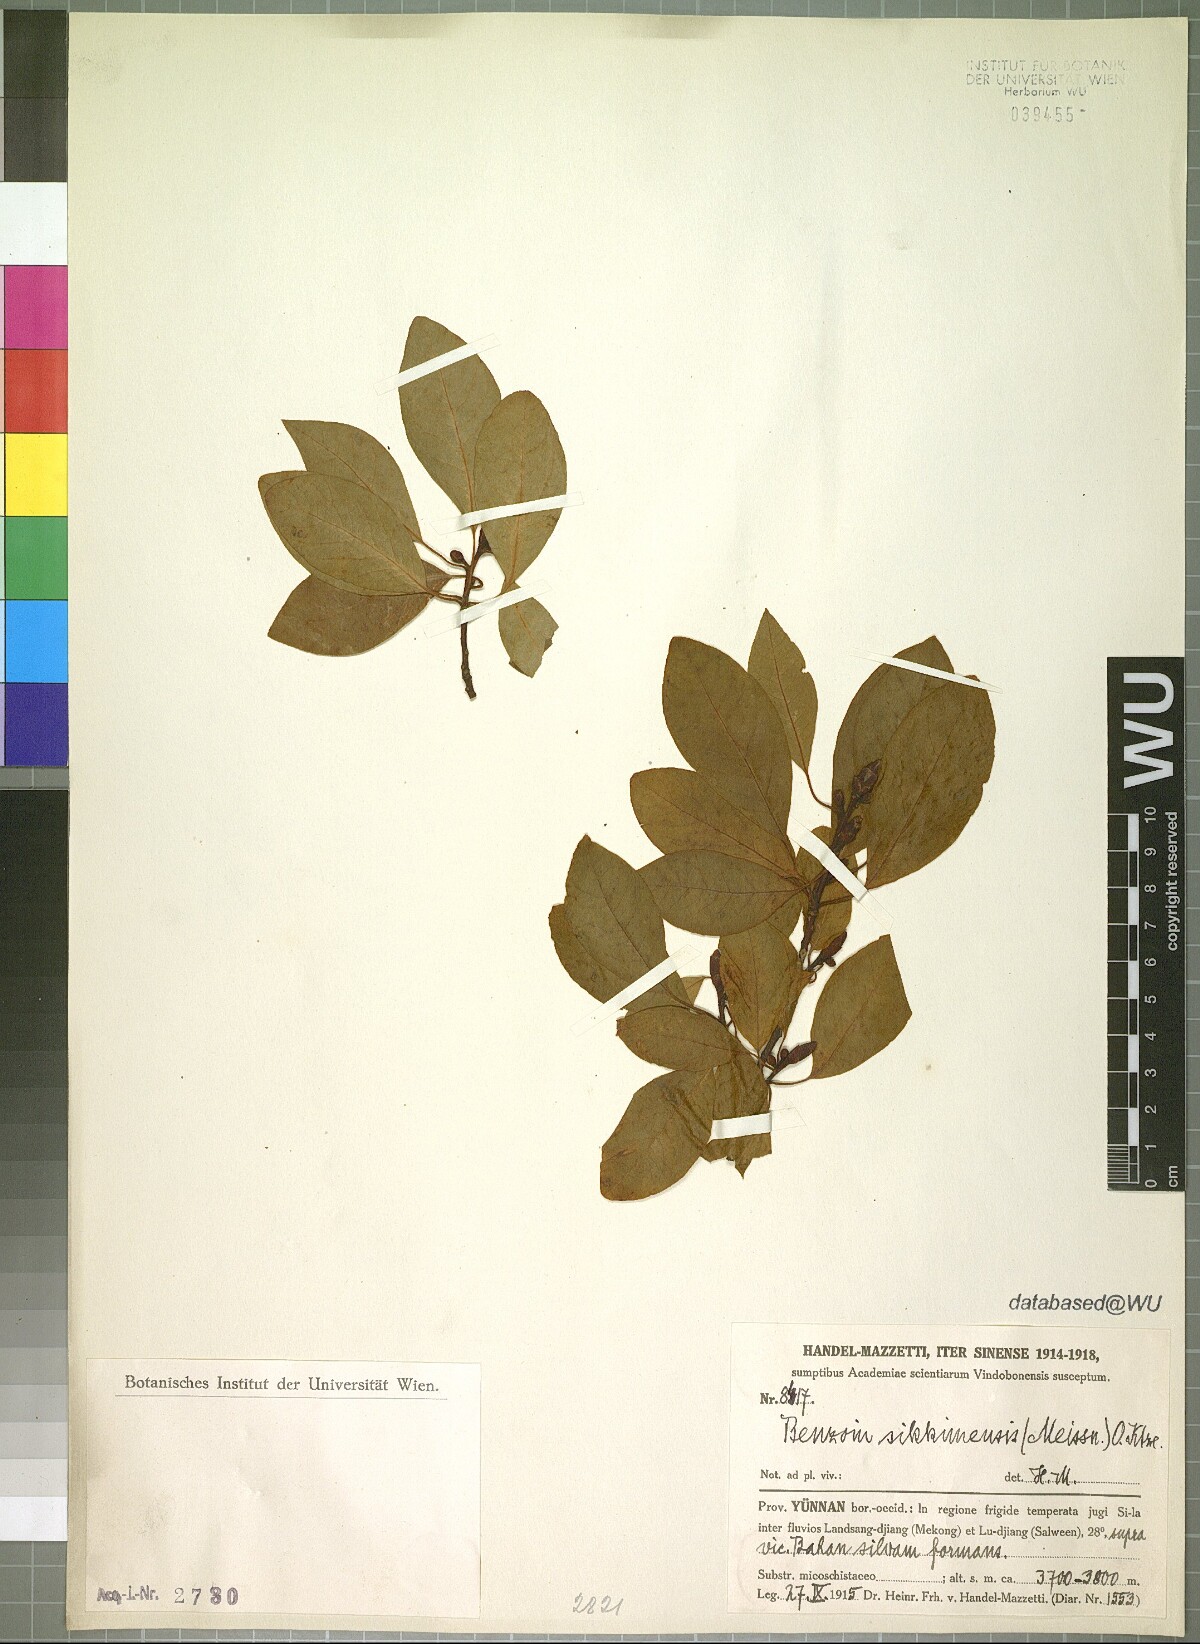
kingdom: Plantae
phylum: Tracheophyta
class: Magnoliopsida
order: Laurales
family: Lauraceae
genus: Litsea
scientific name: Litsea sericea
